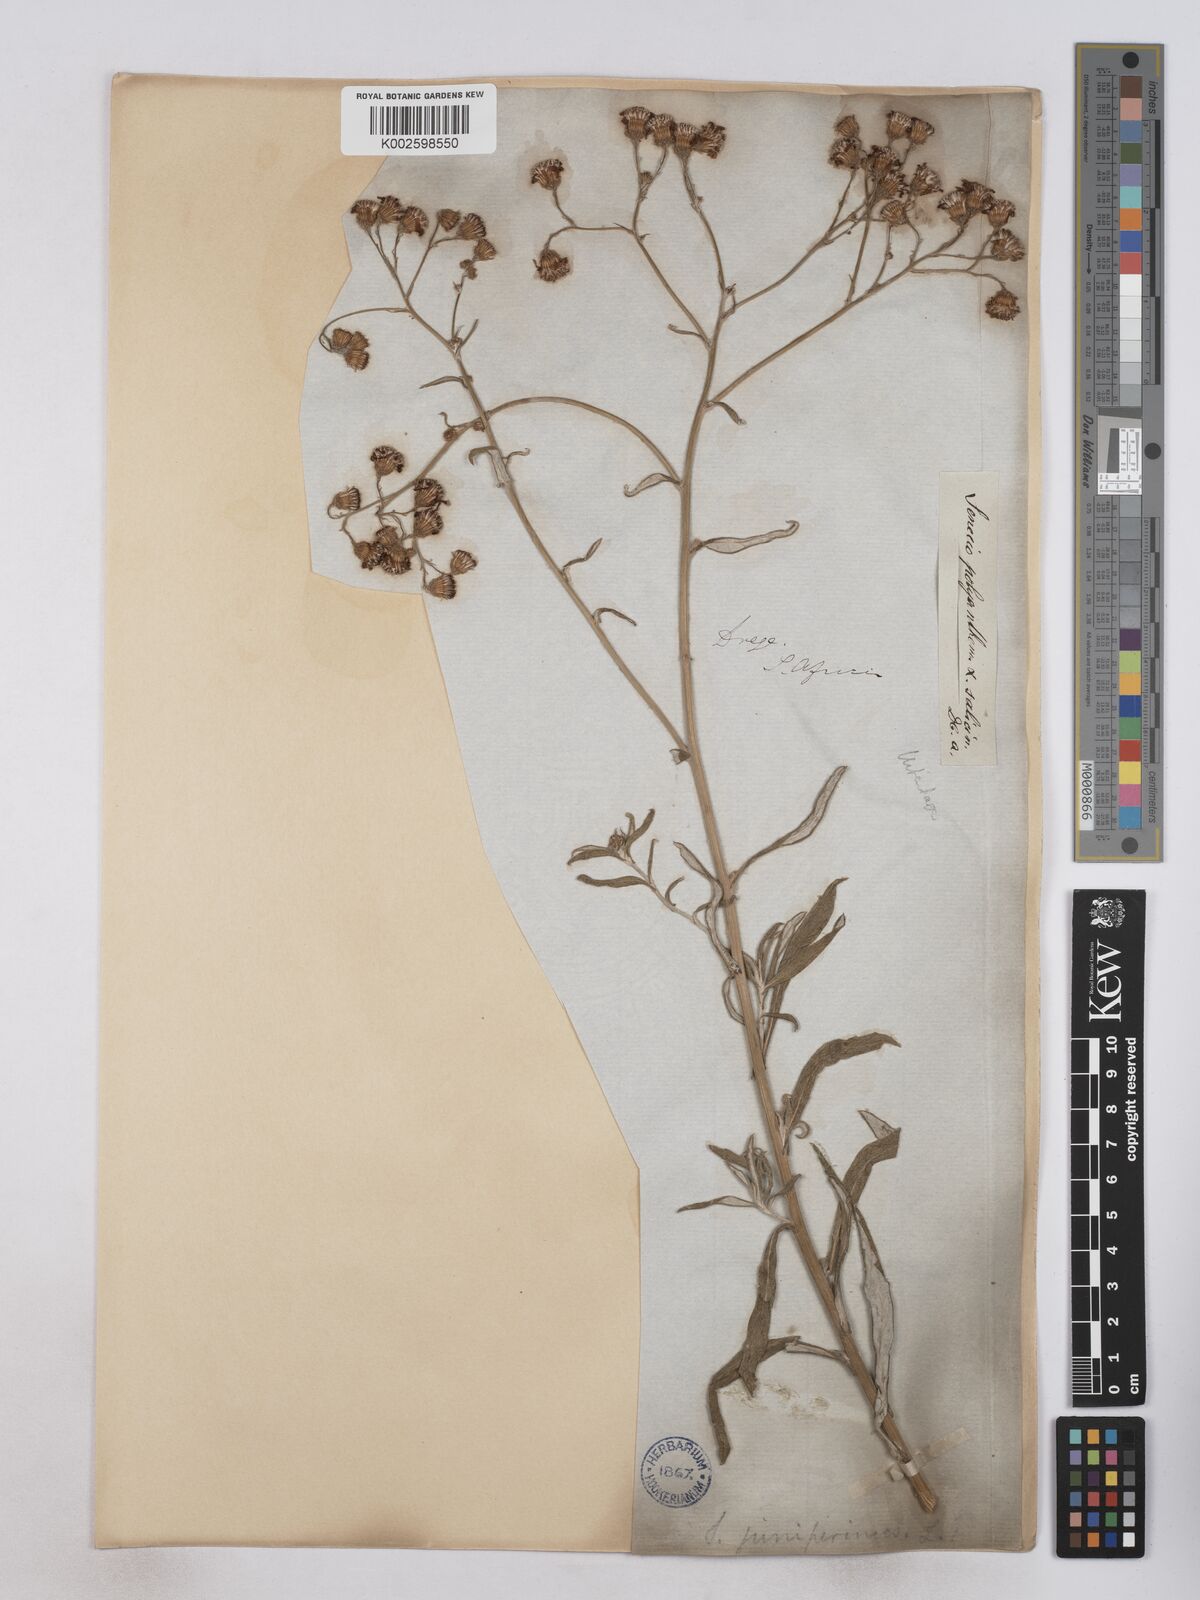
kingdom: Plantae
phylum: Tracheophyta
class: Magnoliopsida
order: Asterales
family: Asteraceae
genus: Senecio
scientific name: Senecio juniperinus
